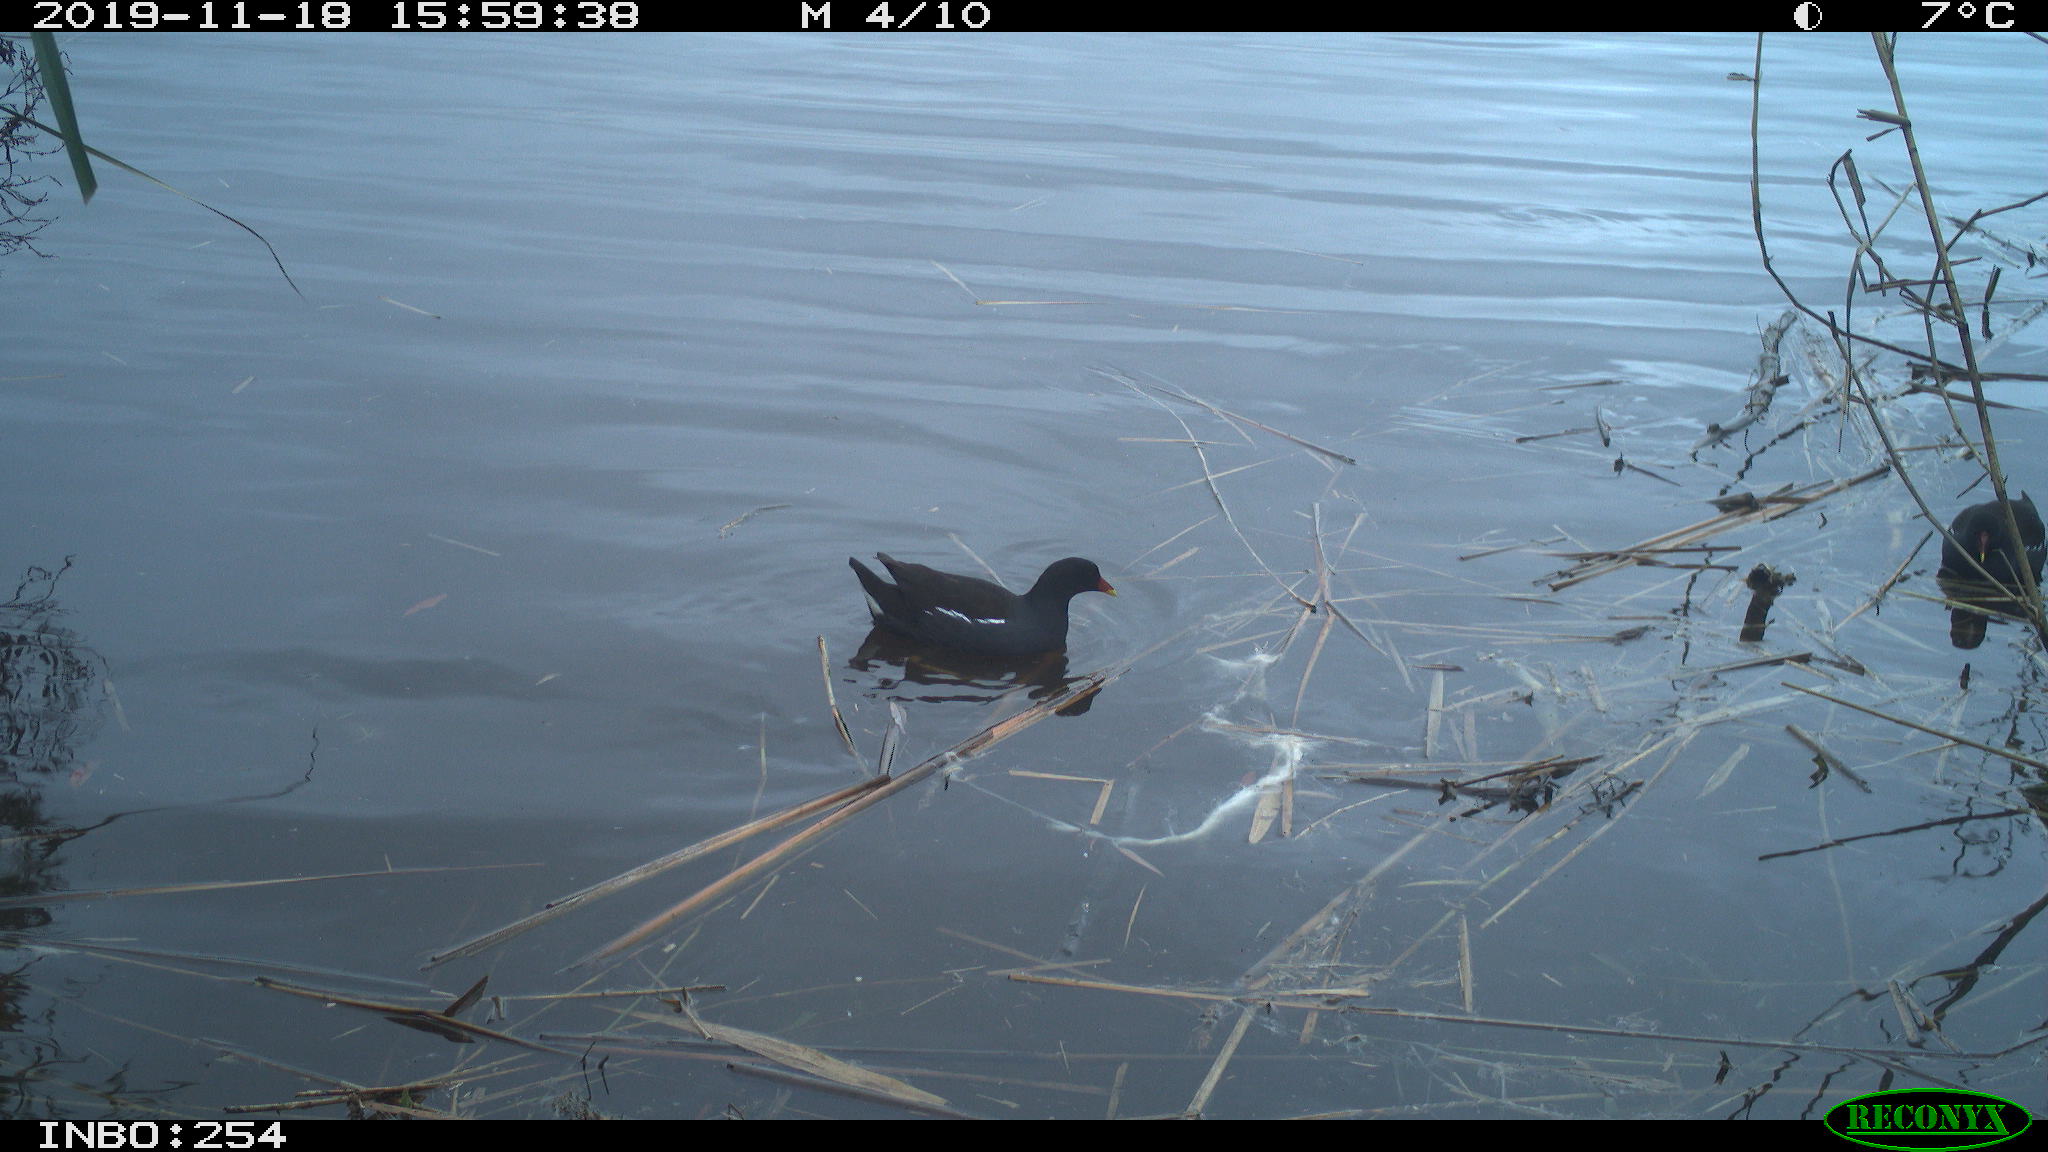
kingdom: Animalia
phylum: Chordata
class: Aves
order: Gruiformes
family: Rallidae
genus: Gallinula
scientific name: Gallinula chloropus
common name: Common moorhen
